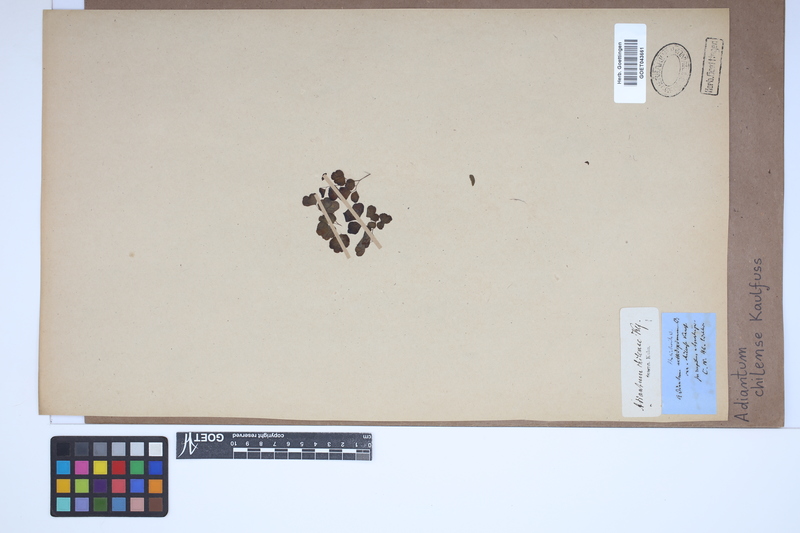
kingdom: Plantae
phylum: Tracheophyta
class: Polypodiopsida
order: Polypodiales
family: Pteridaceae
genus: Adiantum
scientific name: Adiantum chilense
